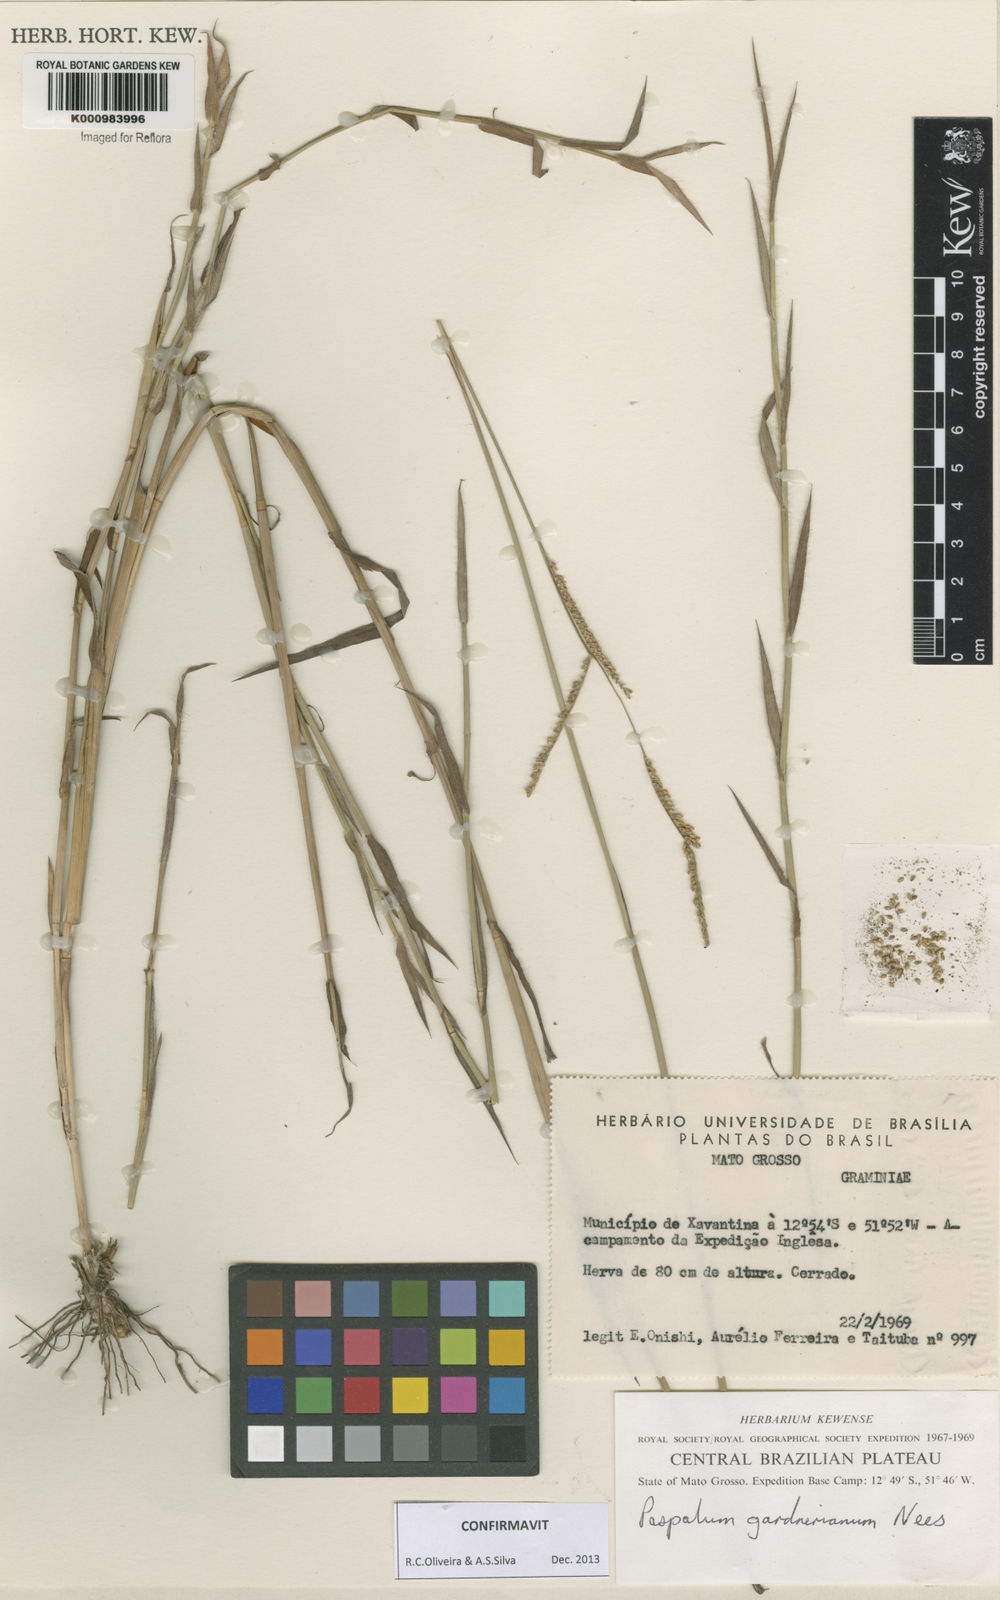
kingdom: Plantae
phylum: Tracheophyta
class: Liliopsida
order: Poales
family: Poaceae
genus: Paspalum
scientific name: Paspalum gardnerianum
